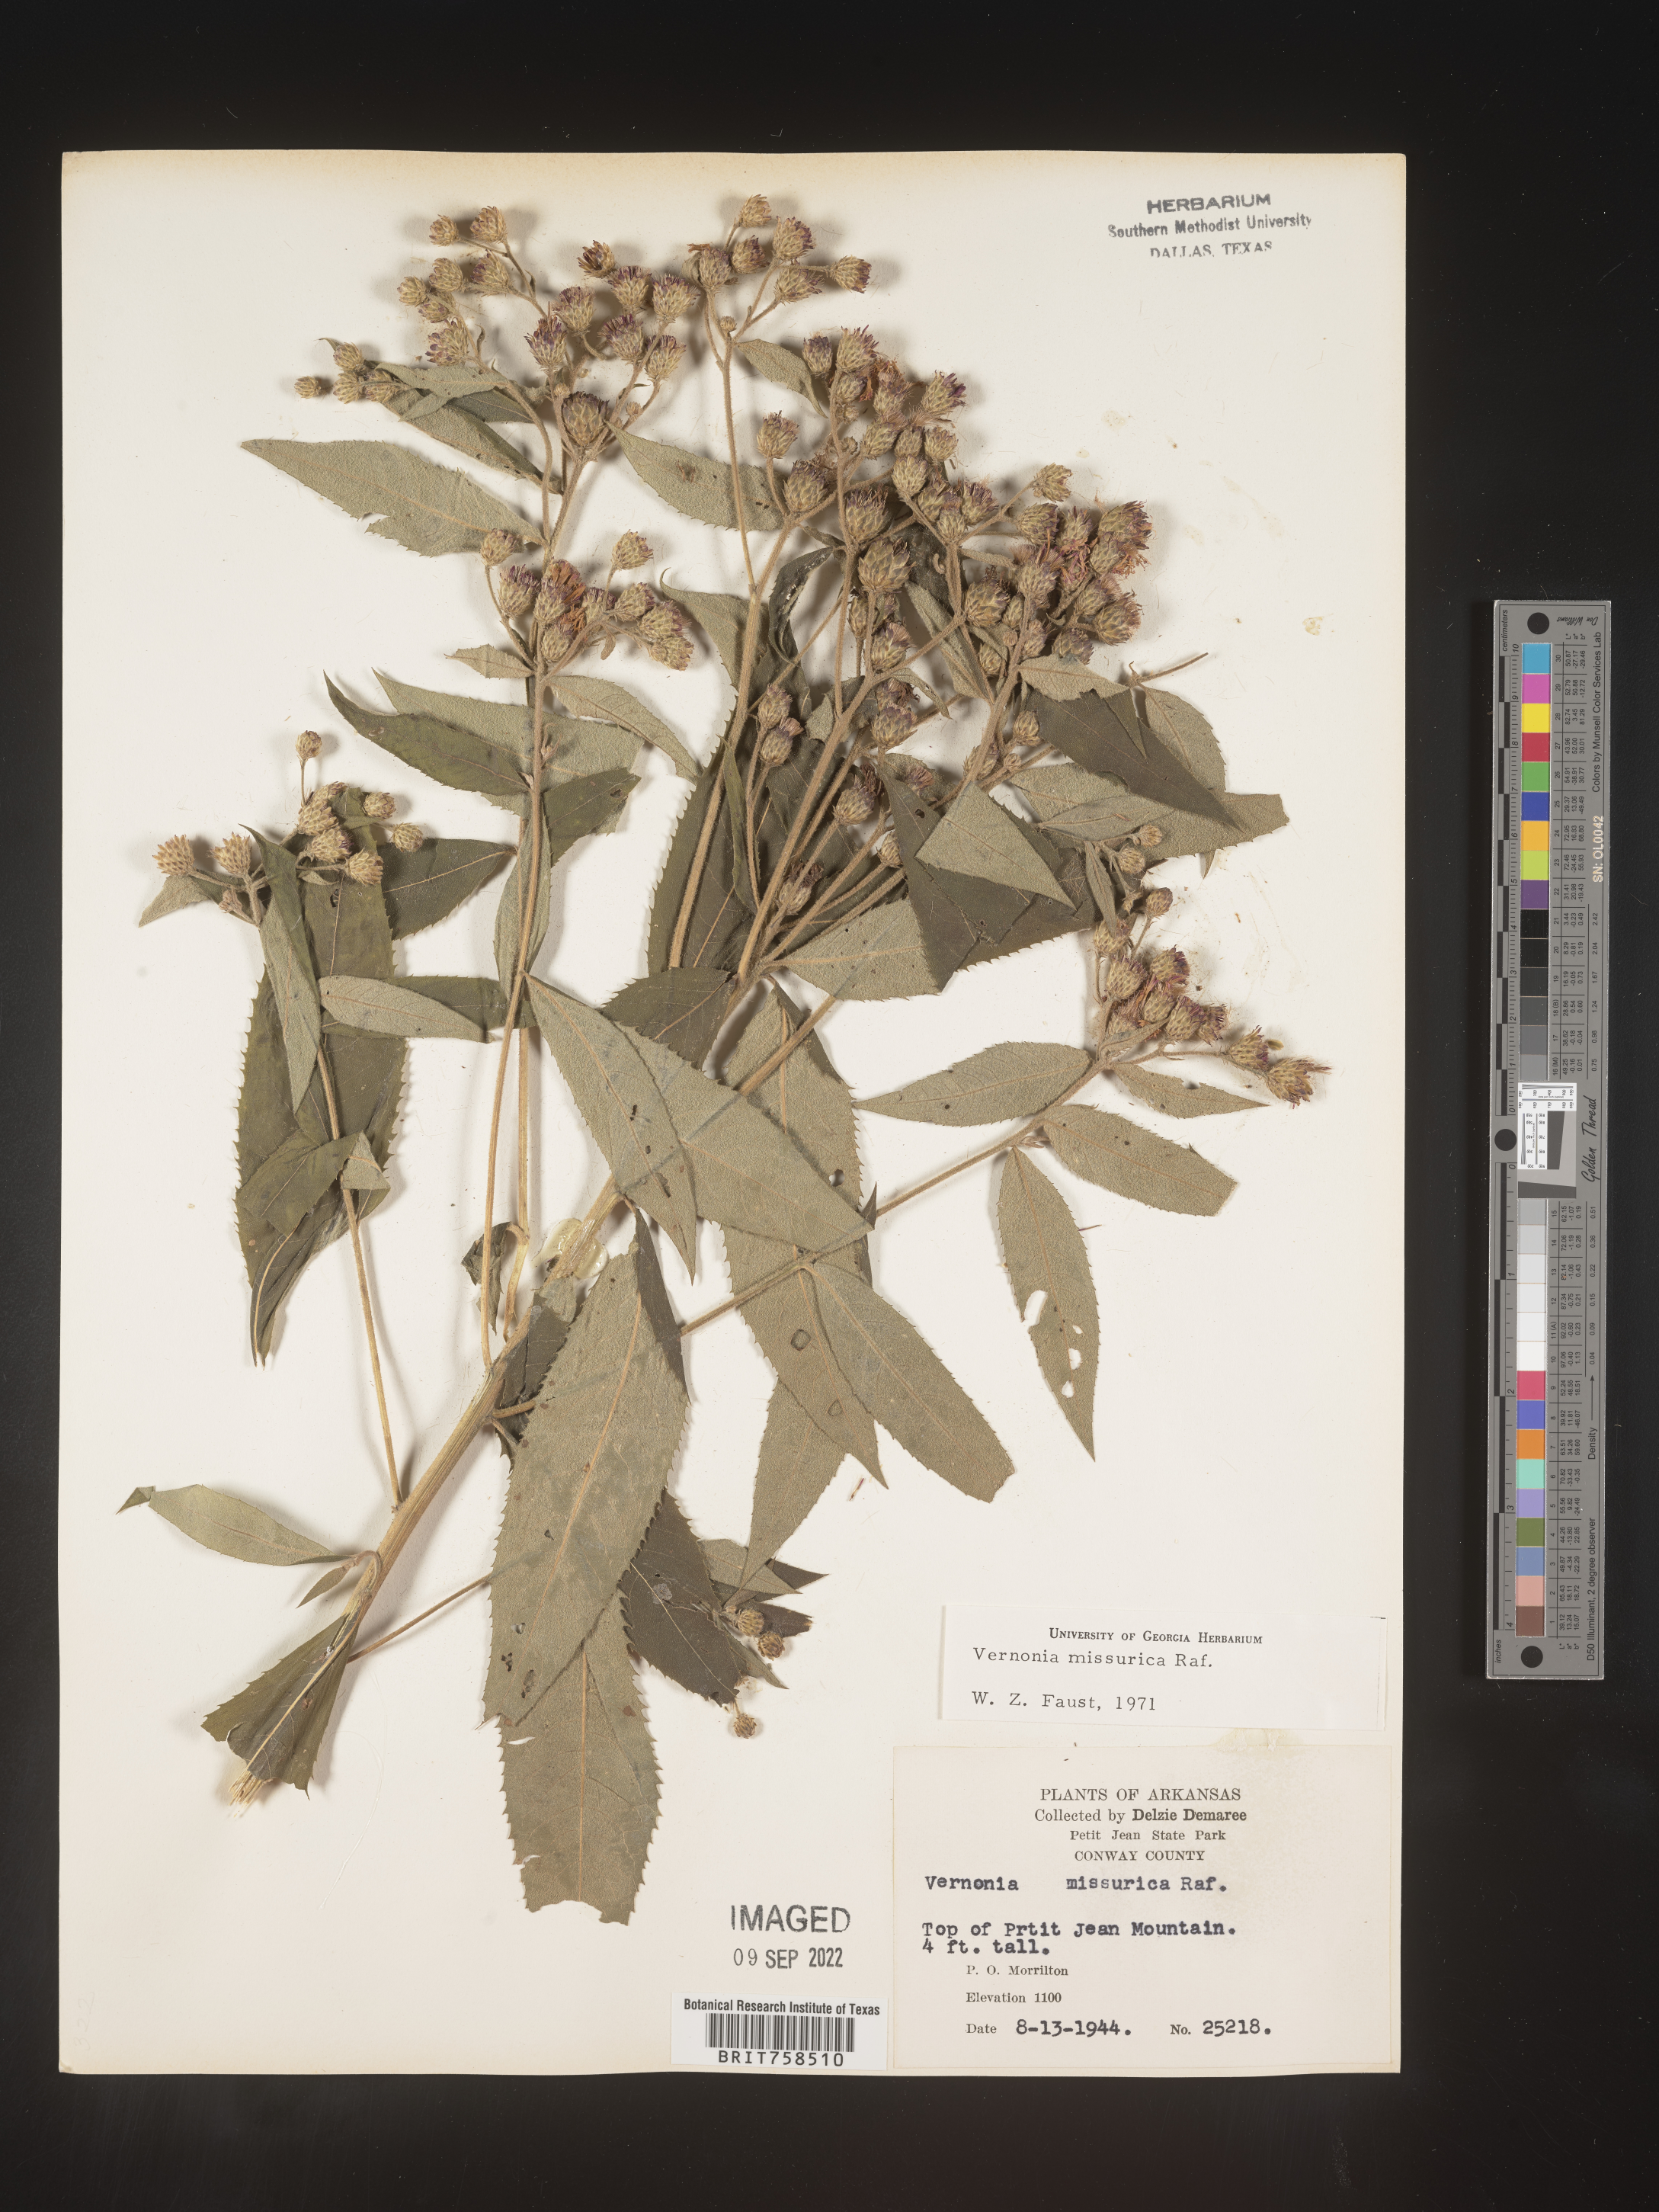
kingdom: Plantae
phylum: Tracheophyta
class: Magnoliopsida
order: Asterales
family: Asteraceae
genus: Vernonia
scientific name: Vernonia missurica
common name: Missouri ironweed
